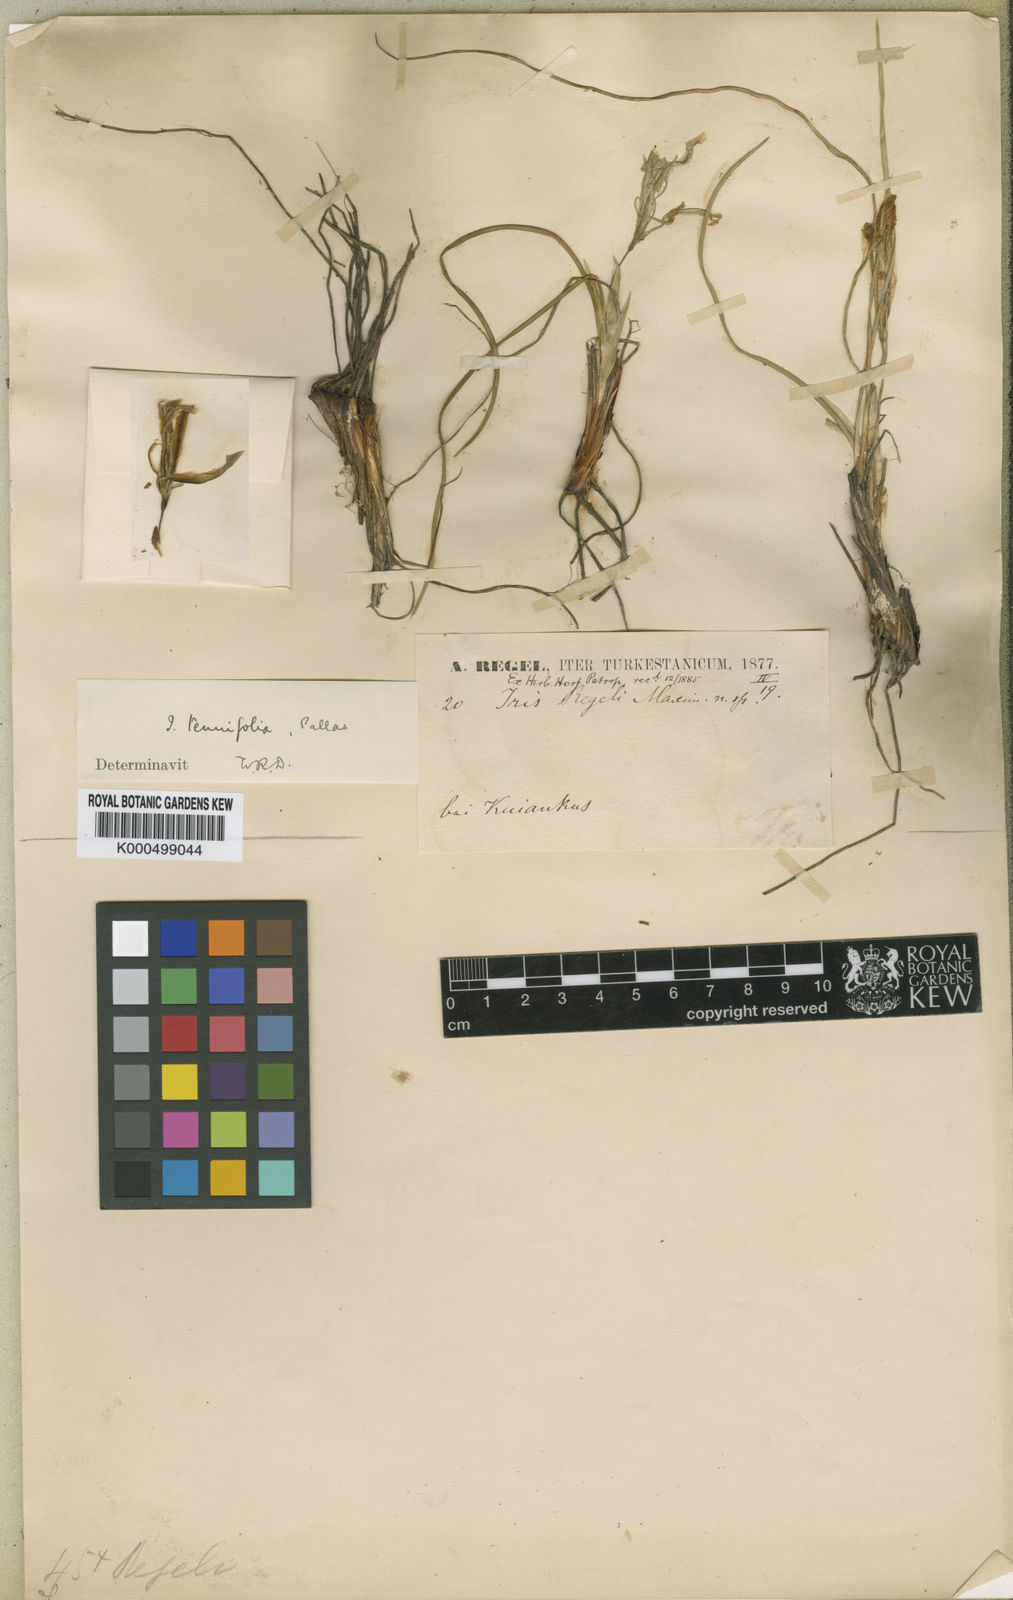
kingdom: Plantae
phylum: Tracheophyta
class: Liliopsida
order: Asparagales
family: Iridaceae
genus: Iris
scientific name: Iris tenuifolia
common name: Slender-leaf iris
